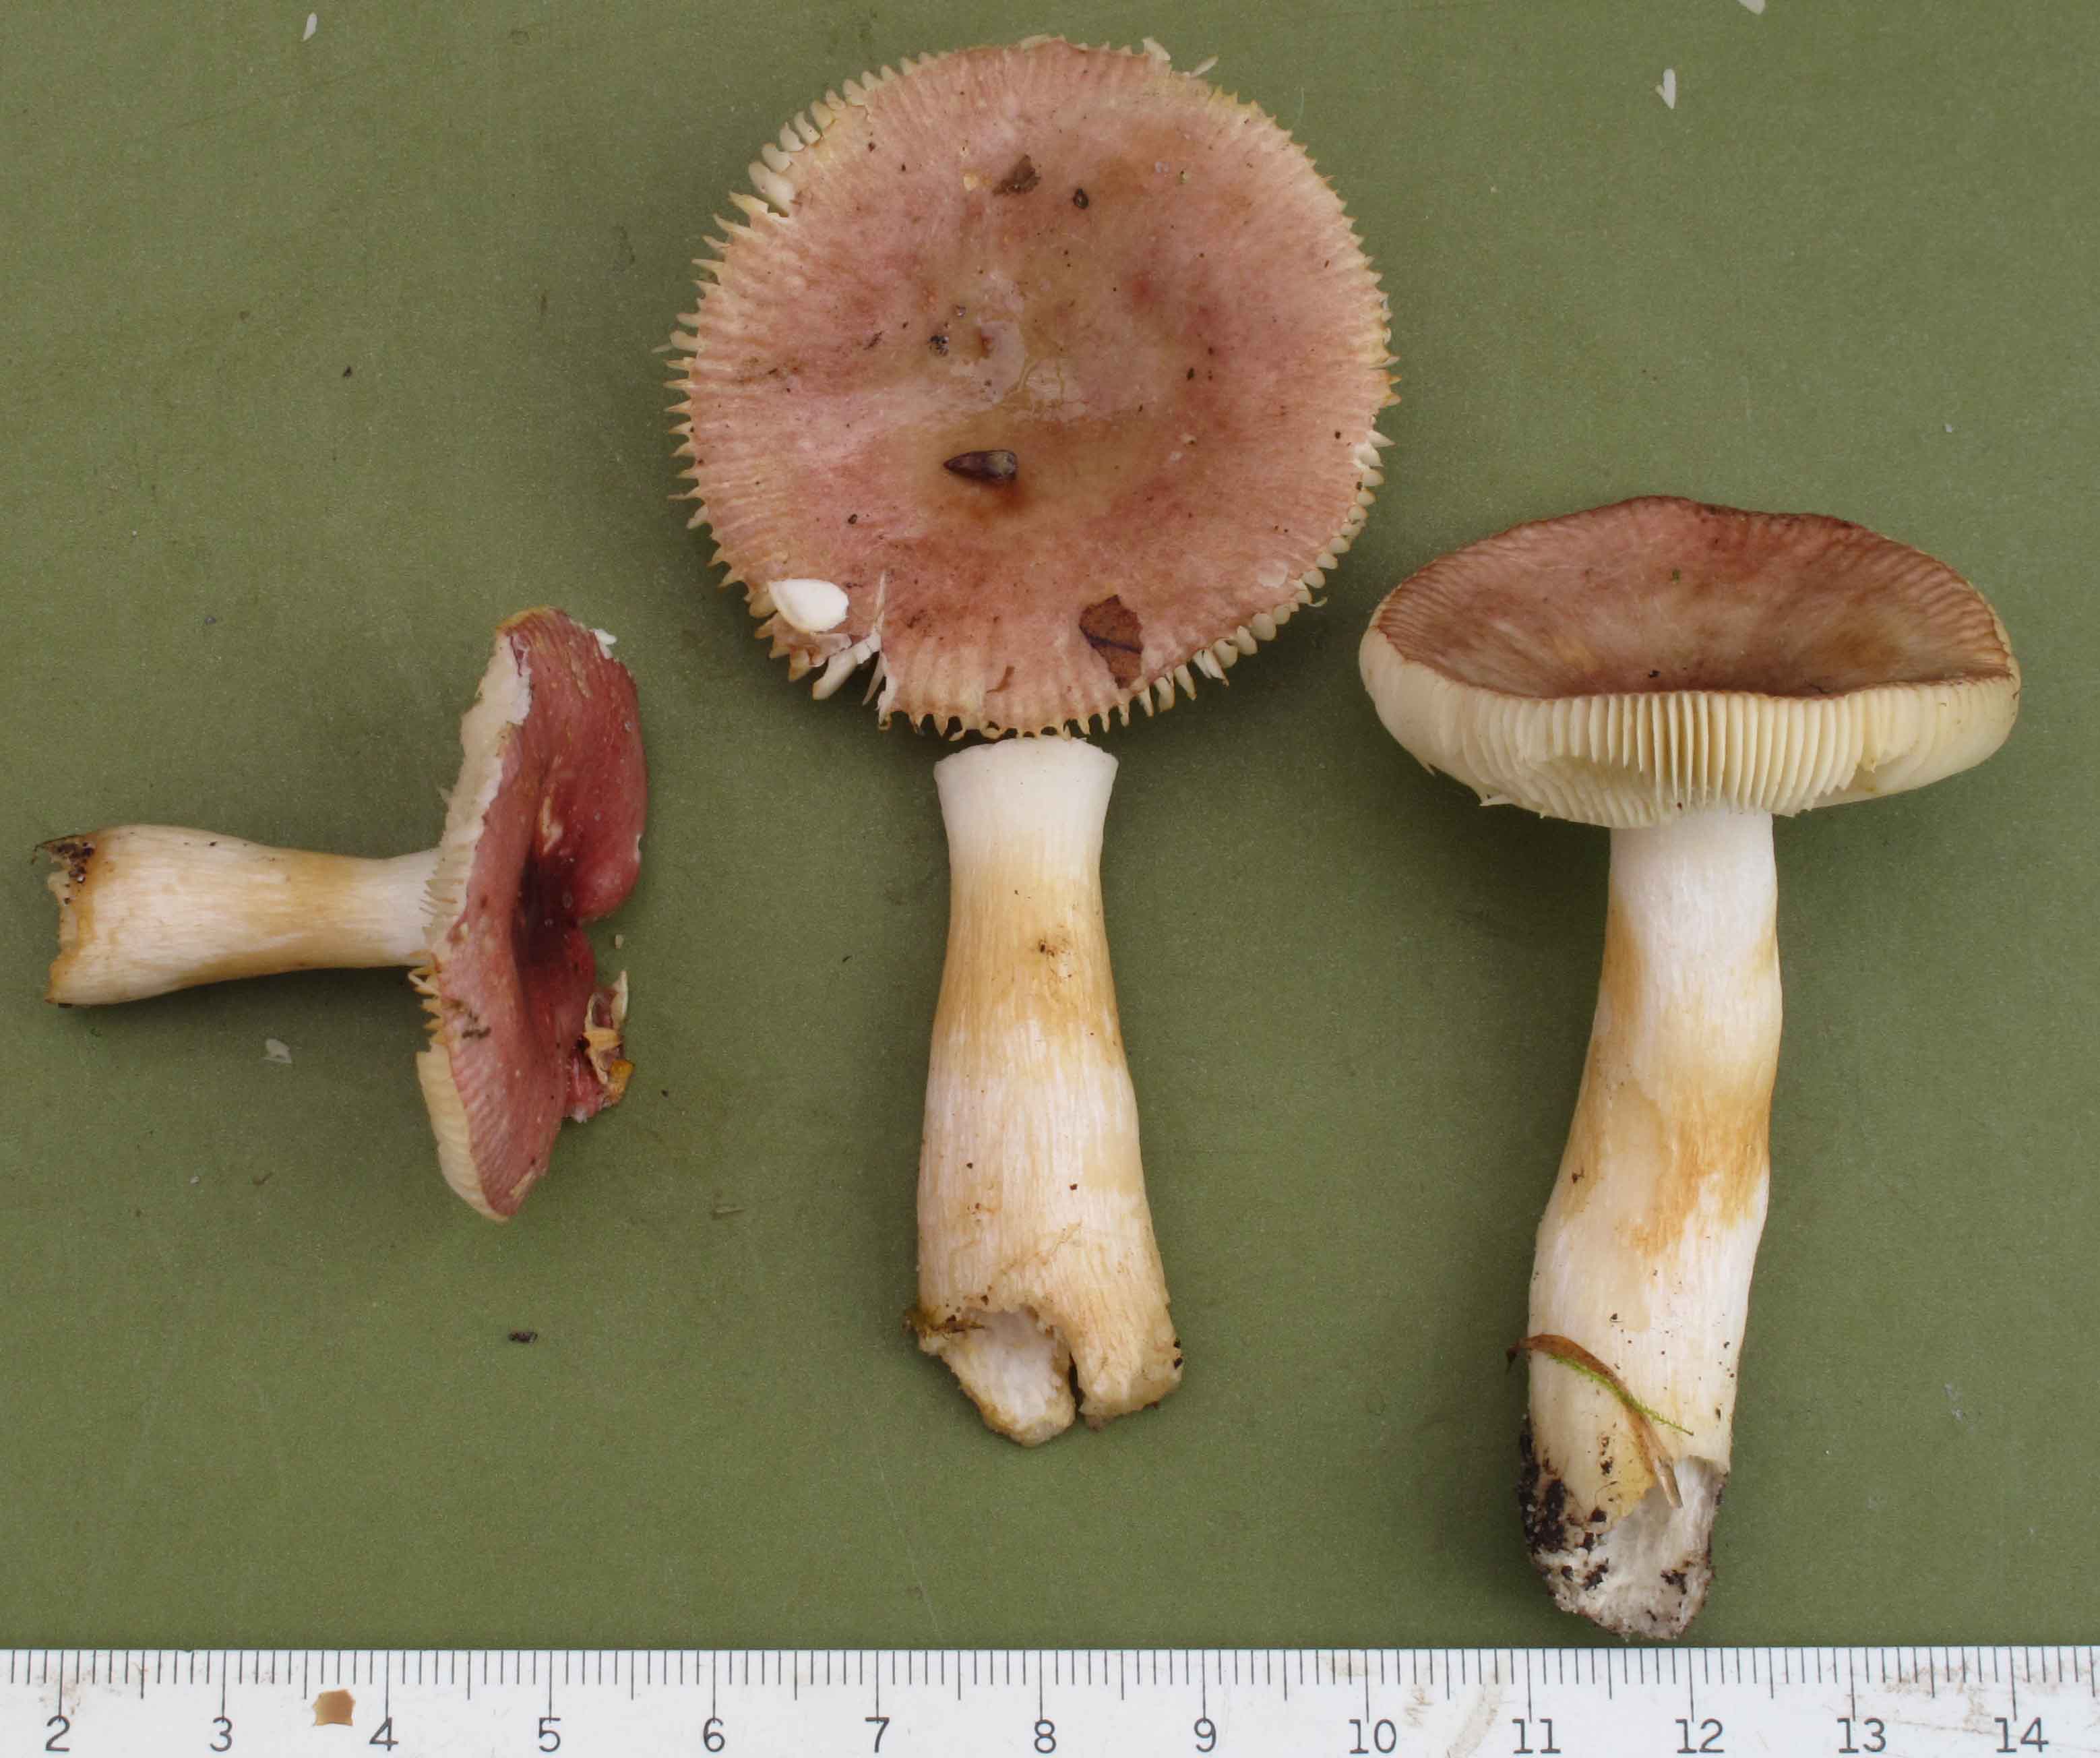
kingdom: Fungi
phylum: Basidiomycota
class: Agaricomycetes
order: Russulales
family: Russulaceae
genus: Russula
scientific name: Russula puellaris
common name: gulstokket skørhat
